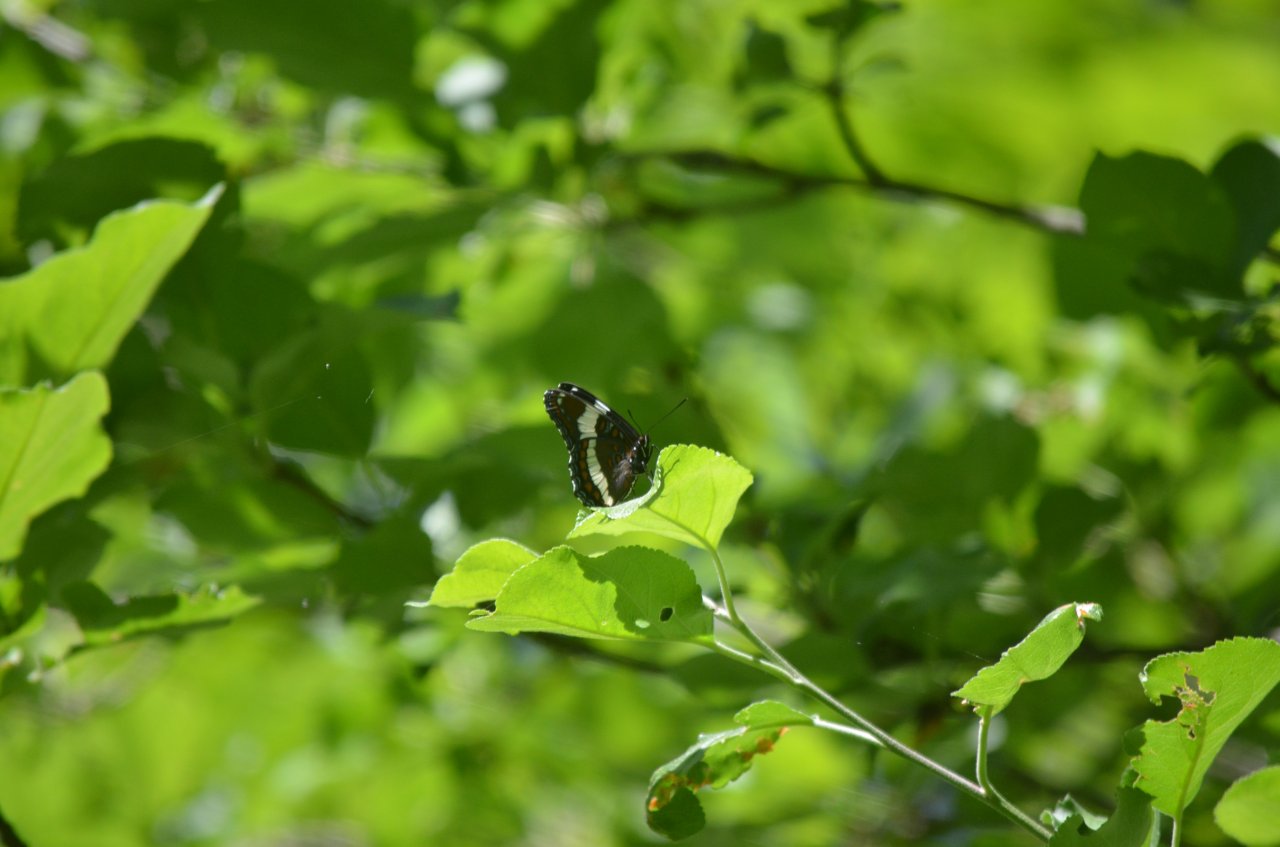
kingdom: Animalia
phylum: Arthropoda
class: Insecta
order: Lepidoptera
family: Nymphalidae
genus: Limenitis
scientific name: Limenitis arthemis
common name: Red-spotted Admiral
